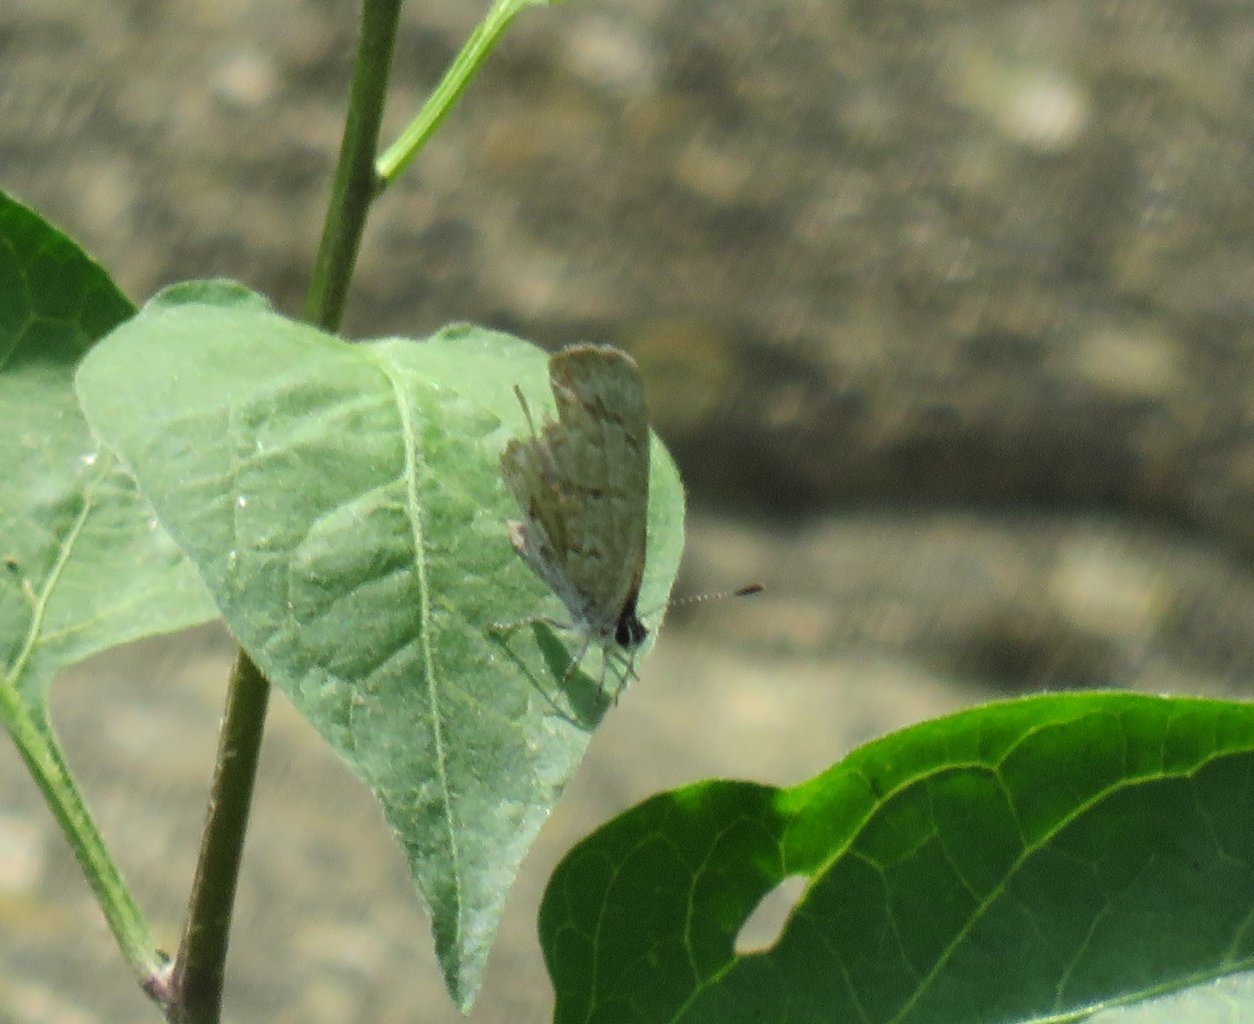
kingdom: Animalia
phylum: Arthropoda
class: Insecta
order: Lepidoptera
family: Lycaenidae
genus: Celastrina
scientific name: Celastrina lucia
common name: Northern Spring Azure
